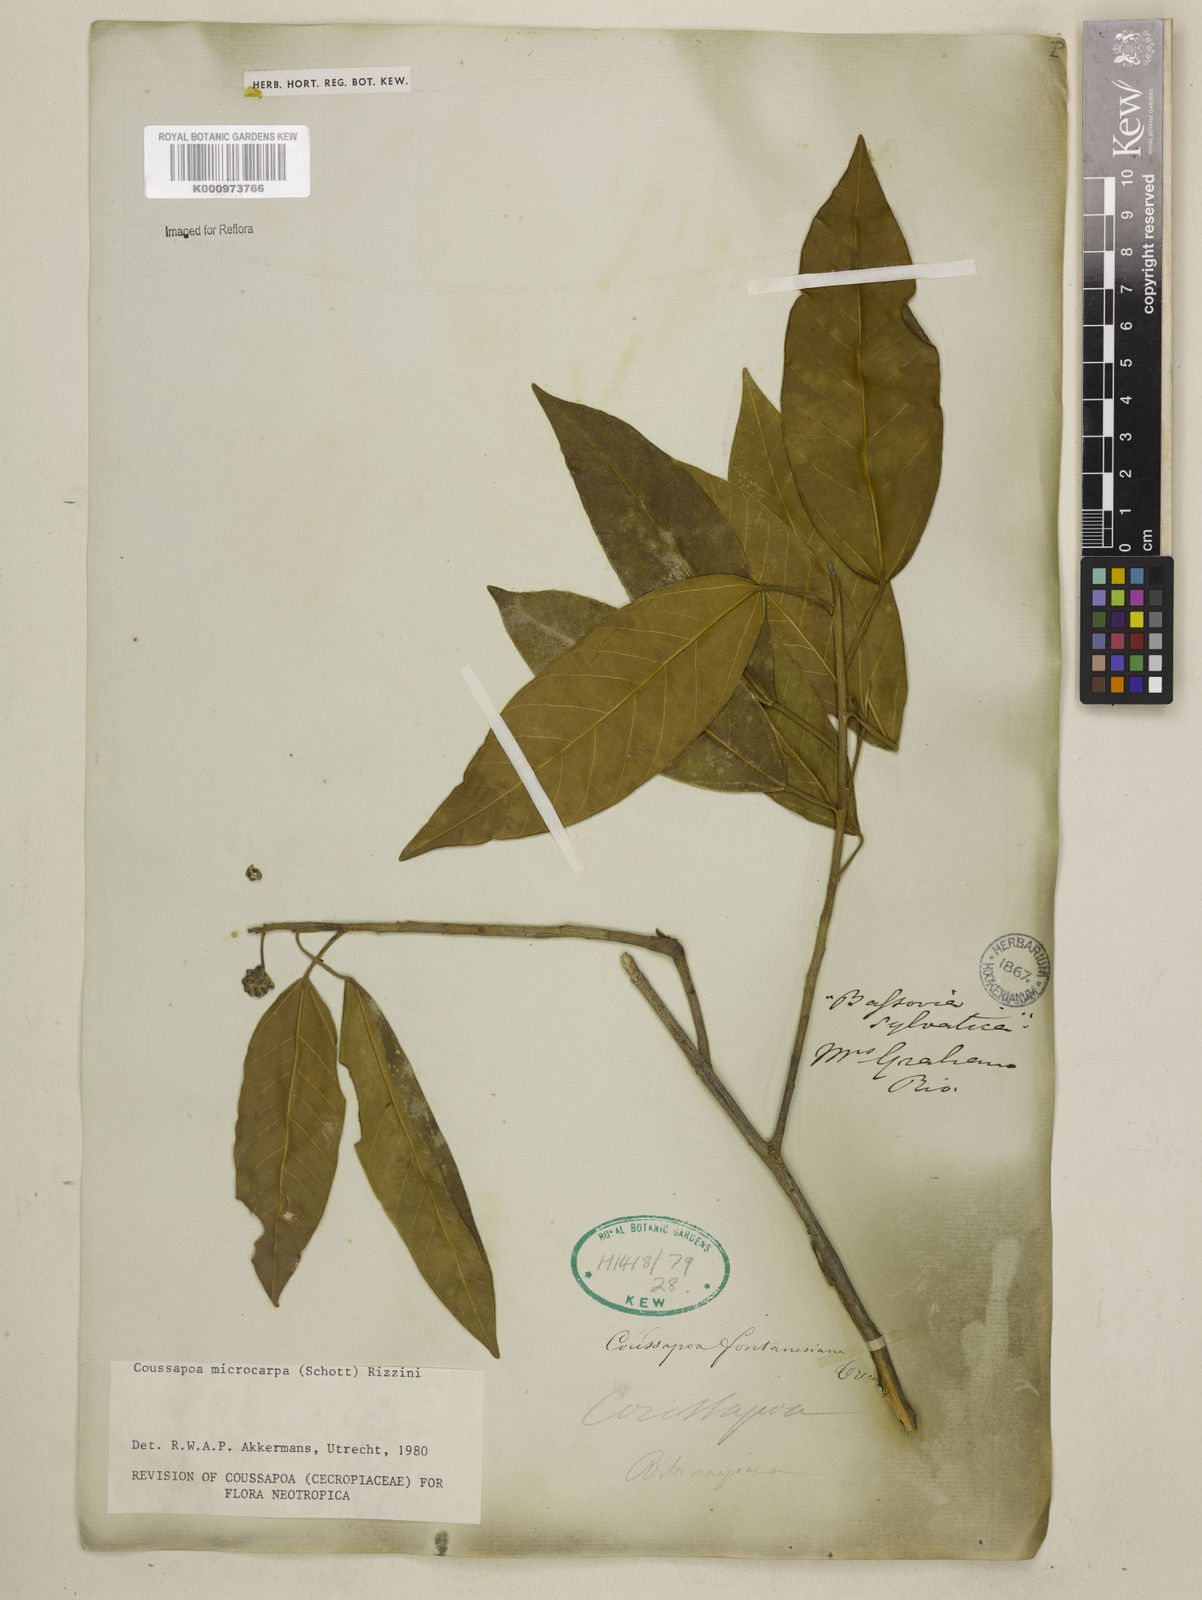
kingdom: Plantae
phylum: Tracheophyta
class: Magnoliopsida
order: Rosales
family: Urticaceae
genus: Coussapoa
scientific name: Coussapoa microcarpa
